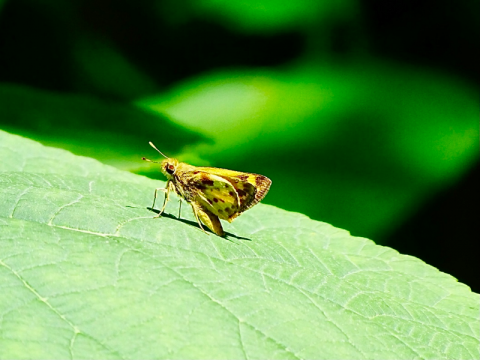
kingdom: Animalia
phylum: Arthropoda
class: Insecta
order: Lepidoptera
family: Hesperiidae
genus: Lon
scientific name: Lon zabulon
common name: Zabulon Skipper
